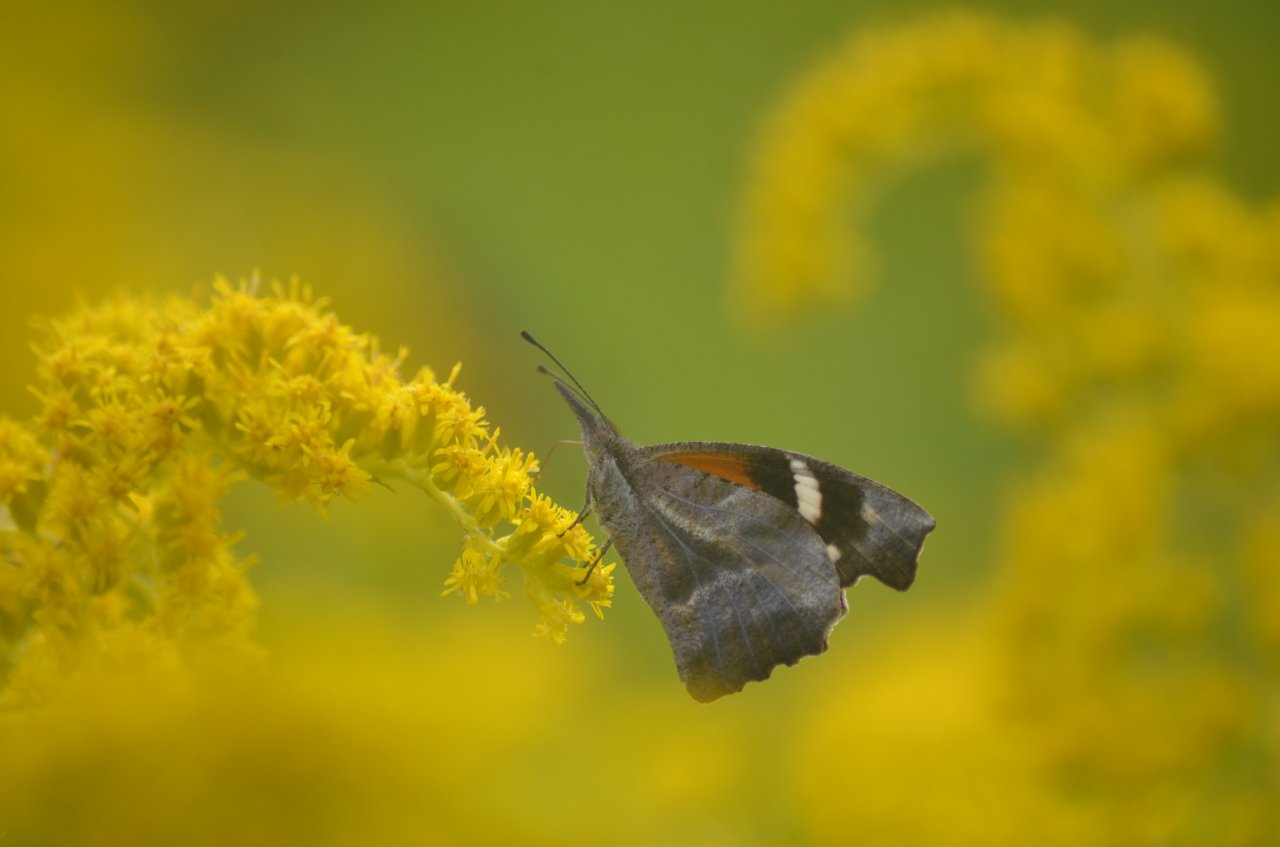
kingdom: Animalia
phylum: Arthropoda
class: Insecta
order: Lepidoptera
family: Nymphalidae
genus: Libytheana
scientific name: Libytheana carinenta
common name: American Snout
